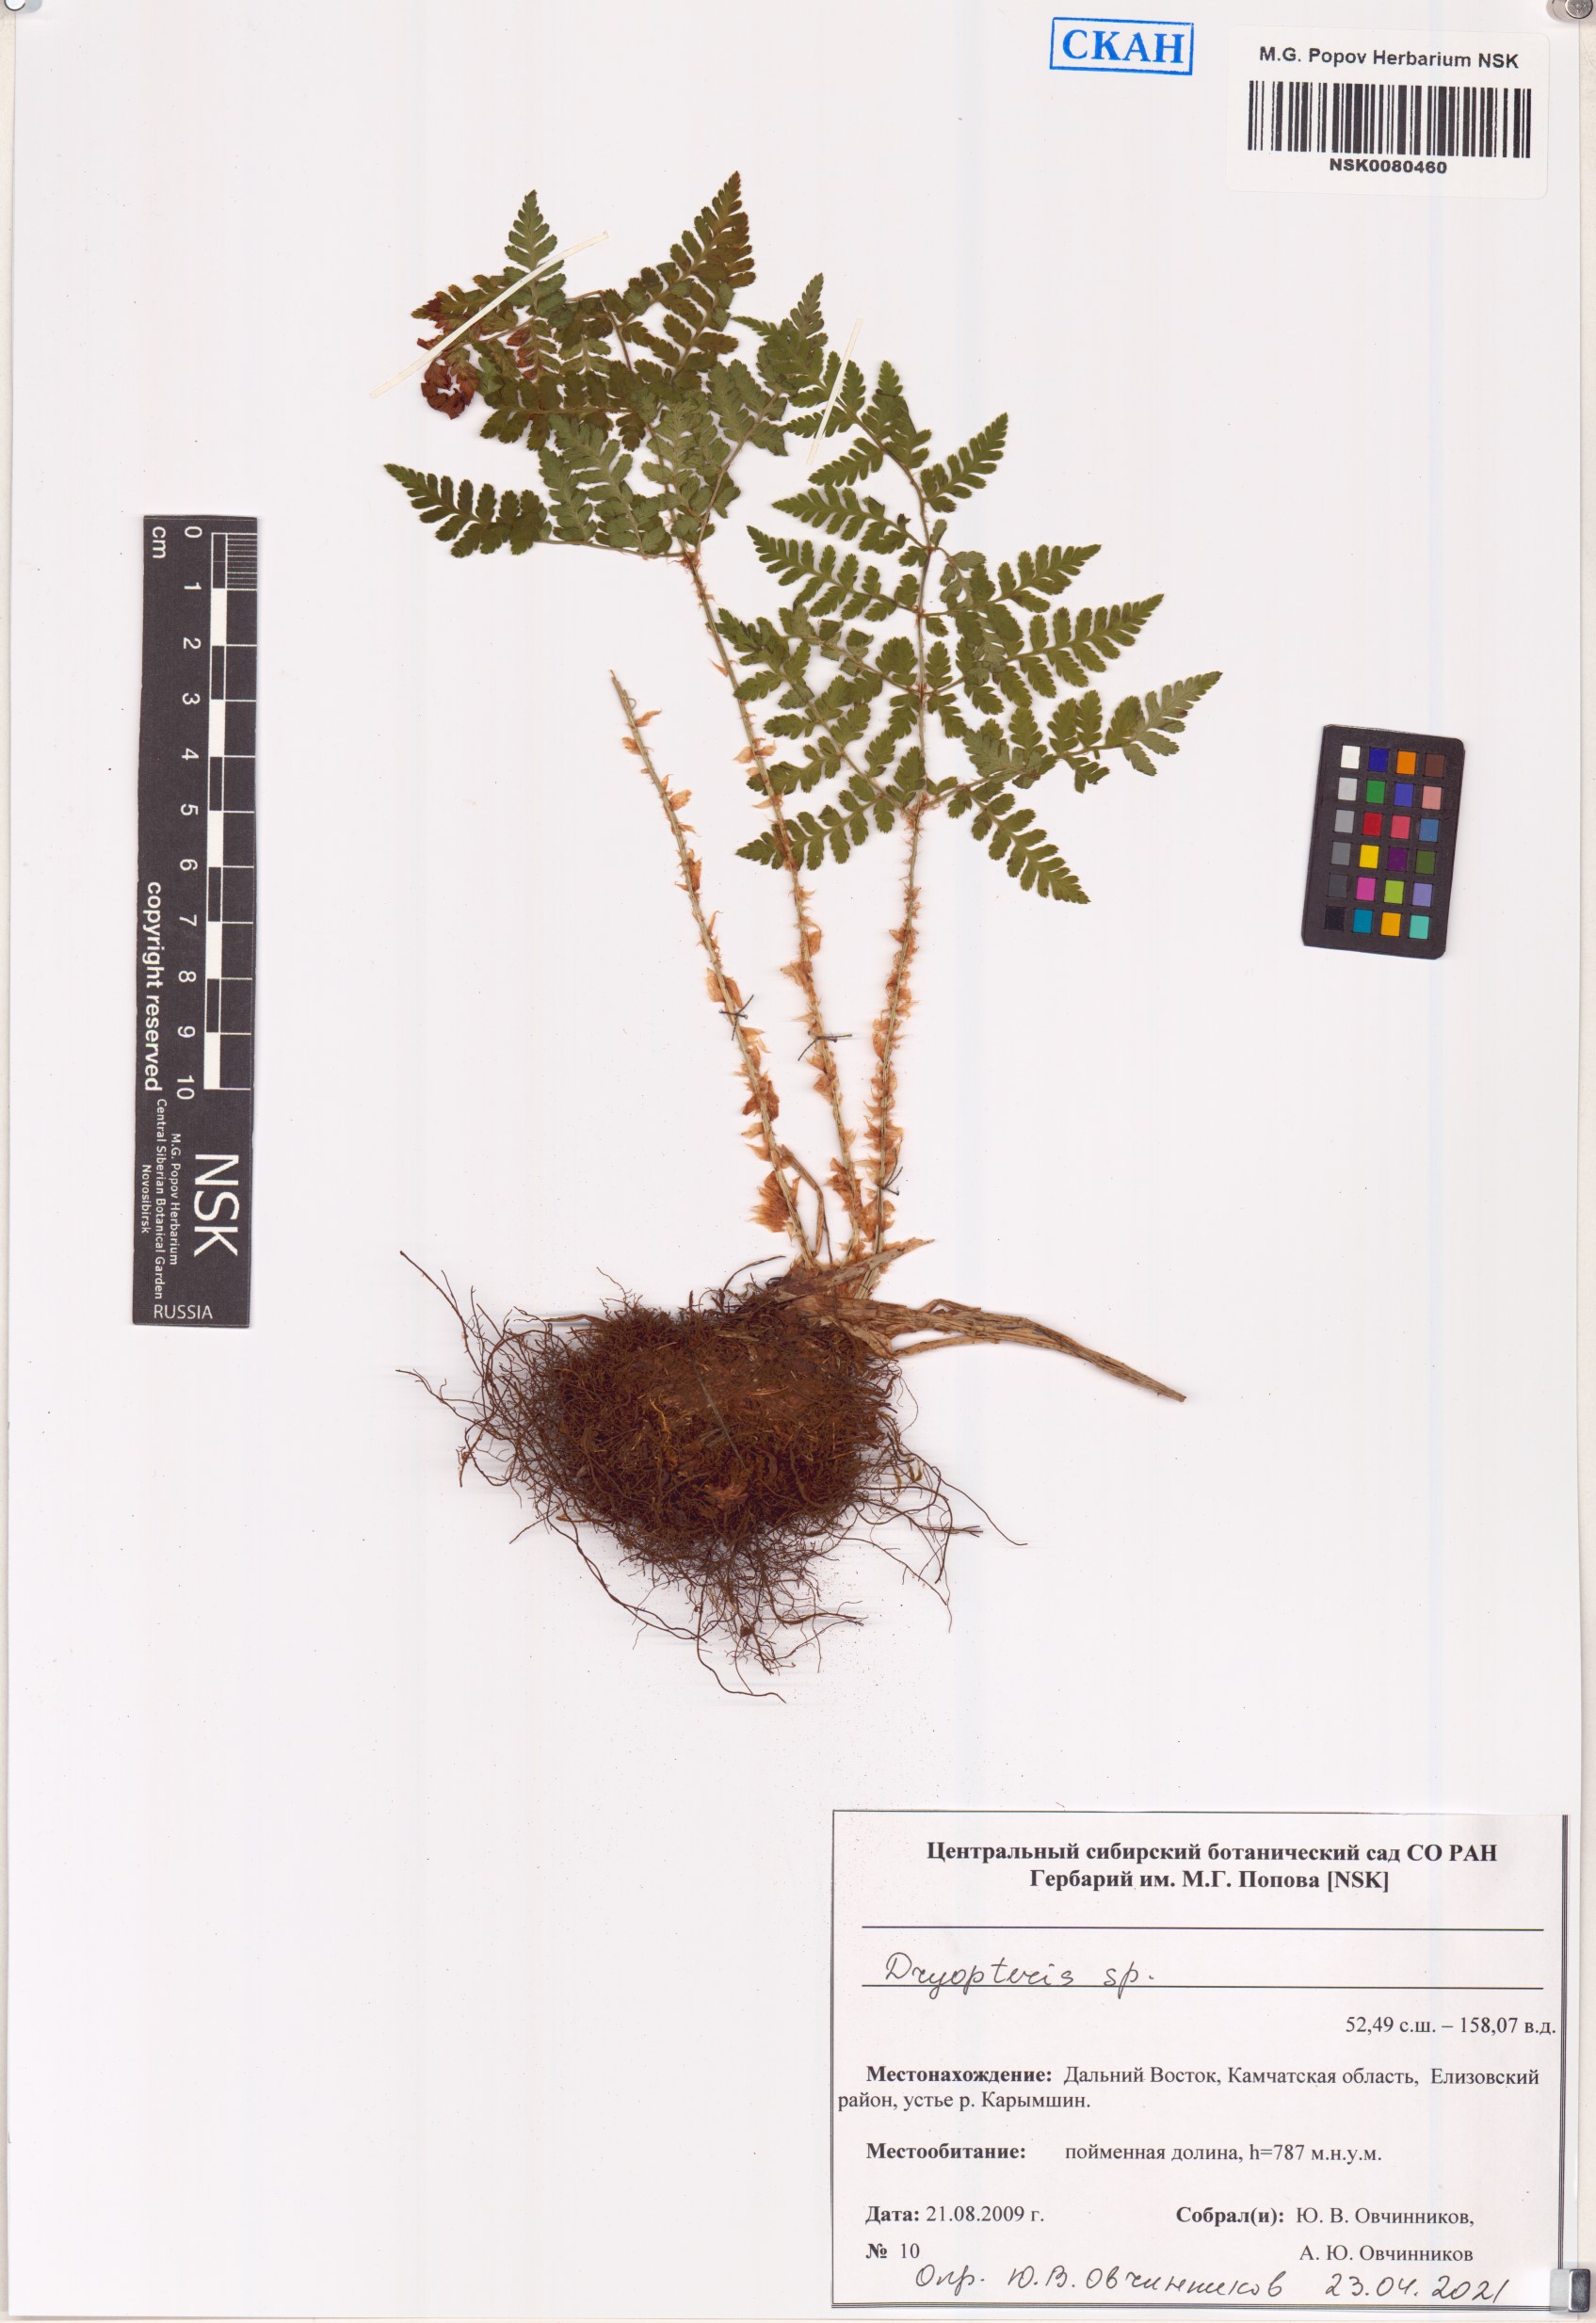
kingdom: Plantae
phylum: Tracheophyta
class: Polypodiopsida
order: Polypodiales
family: Dryopteridaceae
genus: Dryopteris
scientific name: Dryopteris
